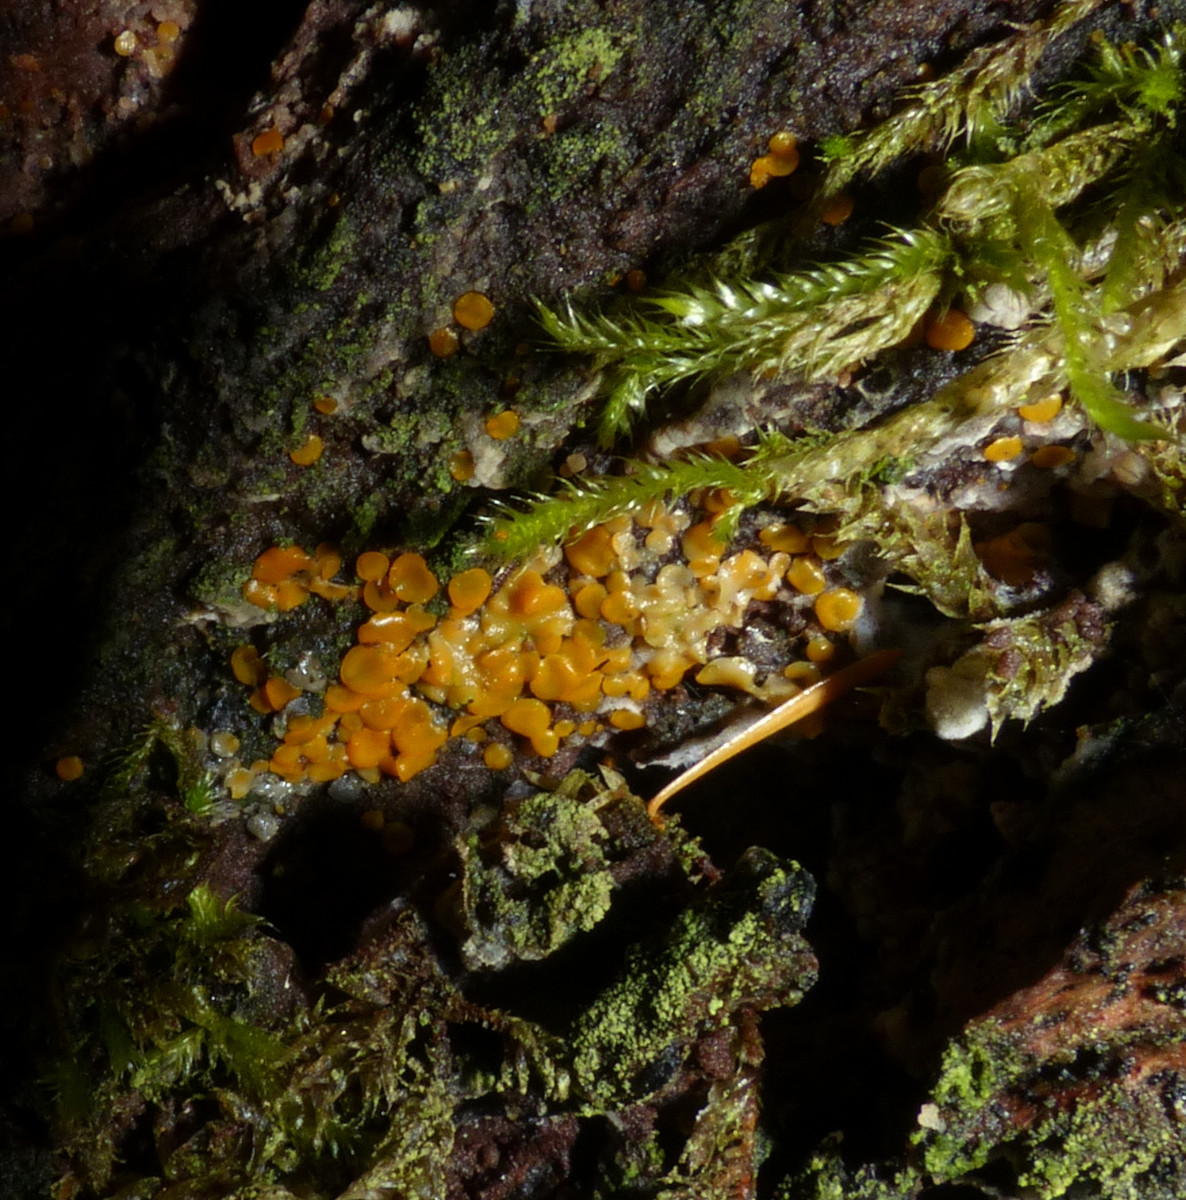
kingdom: Fungi
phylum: Ascomycota
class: Orbiliomycetes
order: Orbiliales
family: Orbiliaceae
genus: Orbilia
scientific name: Orbilia xanthostigma
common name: krumsporet voksskive
